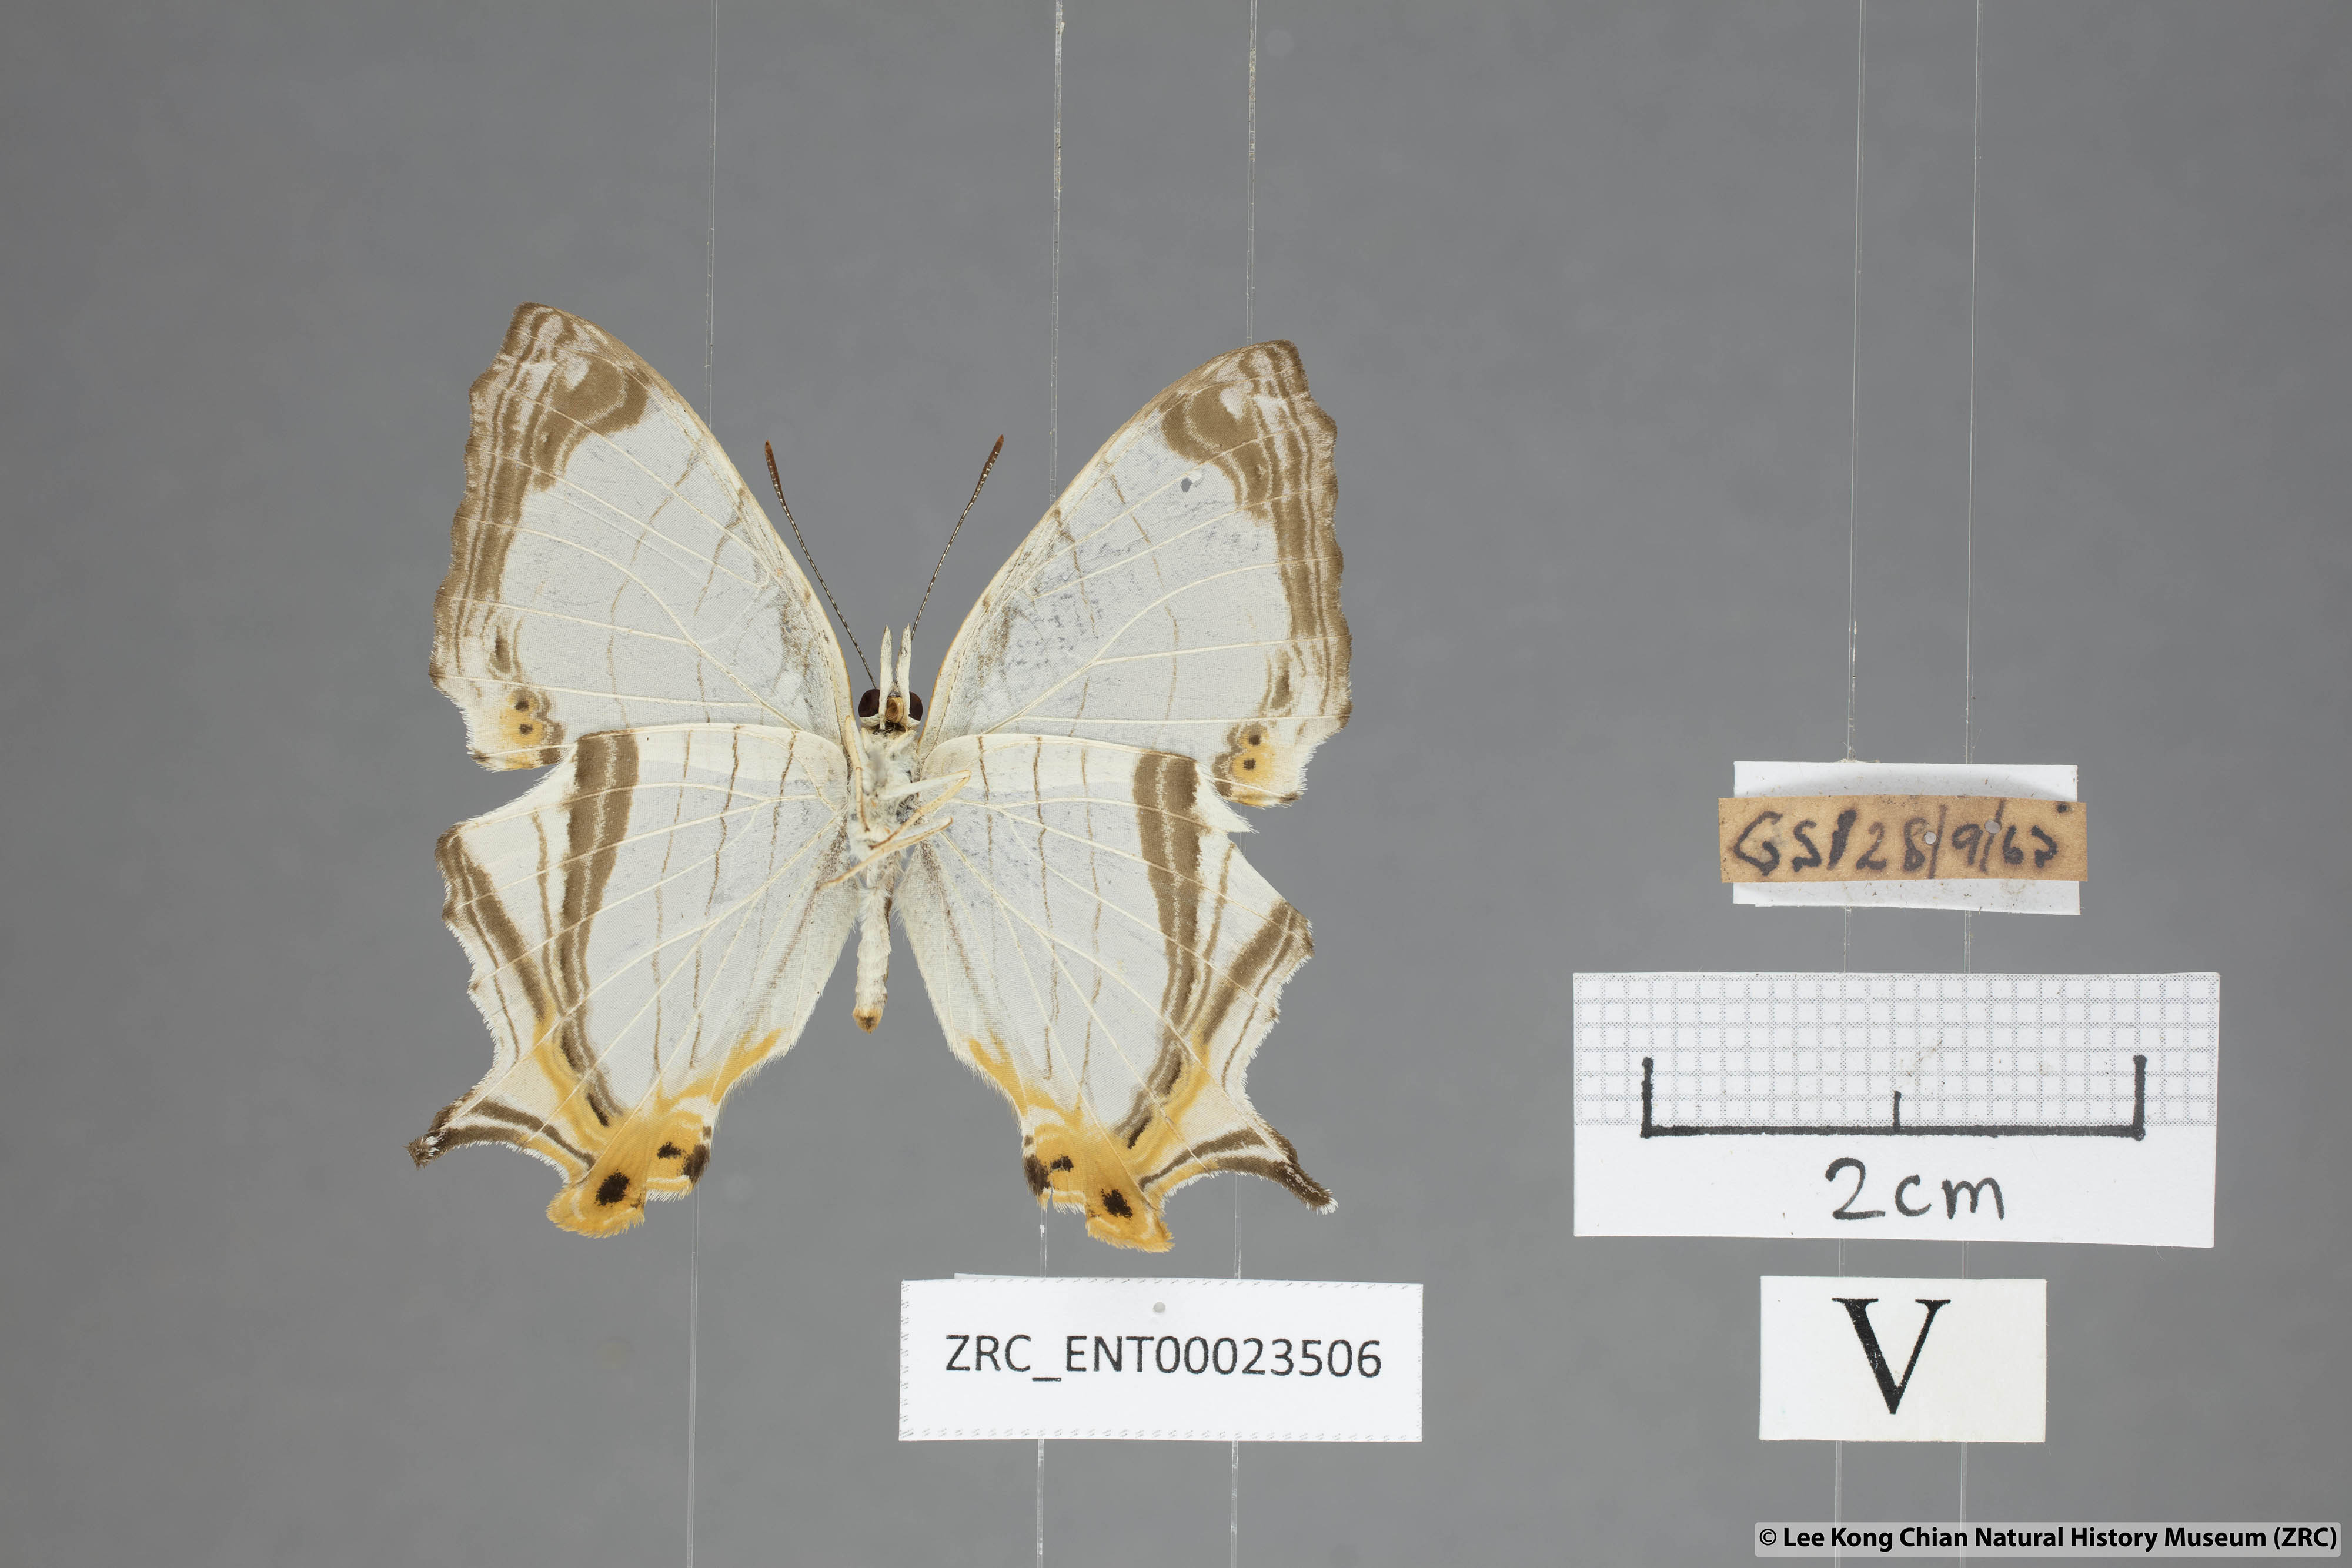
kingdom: Animalia
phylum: Arthropoda
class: Insecta
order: Lepidoptera
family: Nymphalidae
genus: Cyrestis
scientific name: Cyrestis nivea
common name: Straight line mapwing
